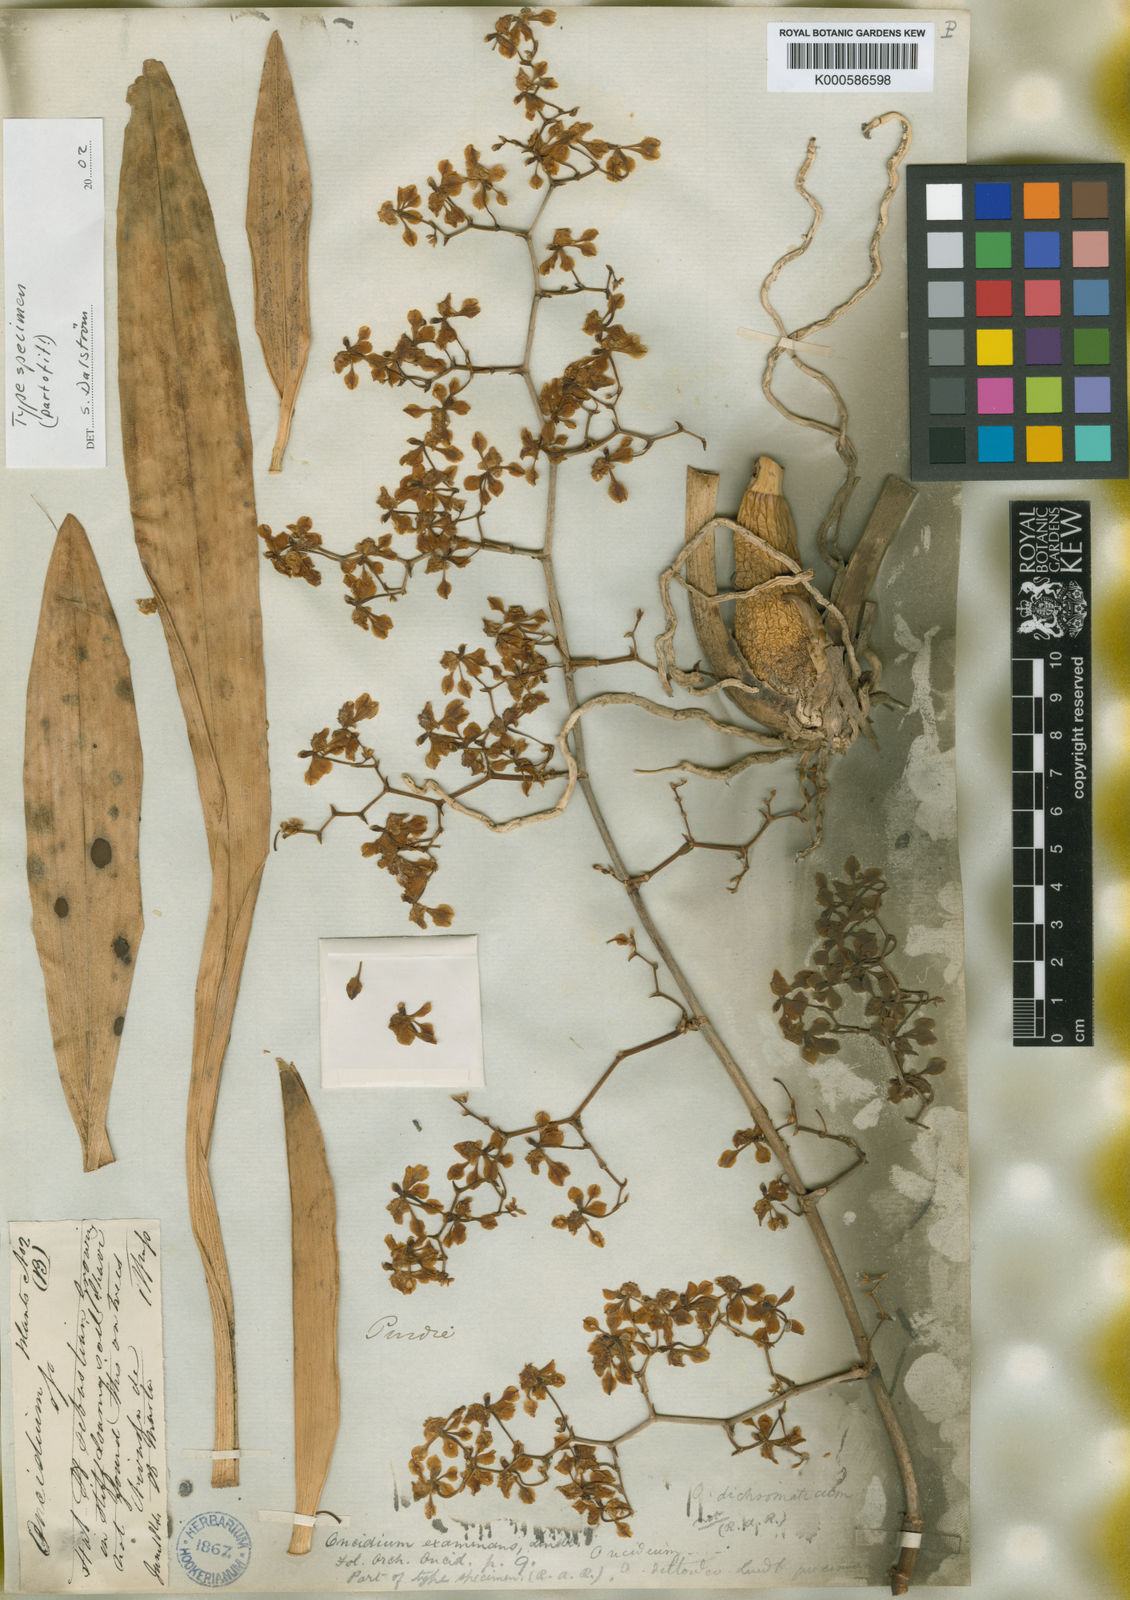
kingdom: Plantae
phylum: Tracheophyta
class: Liliopsida
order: Asparagales
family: Orchidaceae
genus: Cyrtochilum
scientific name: Cyrtochilum examinans
